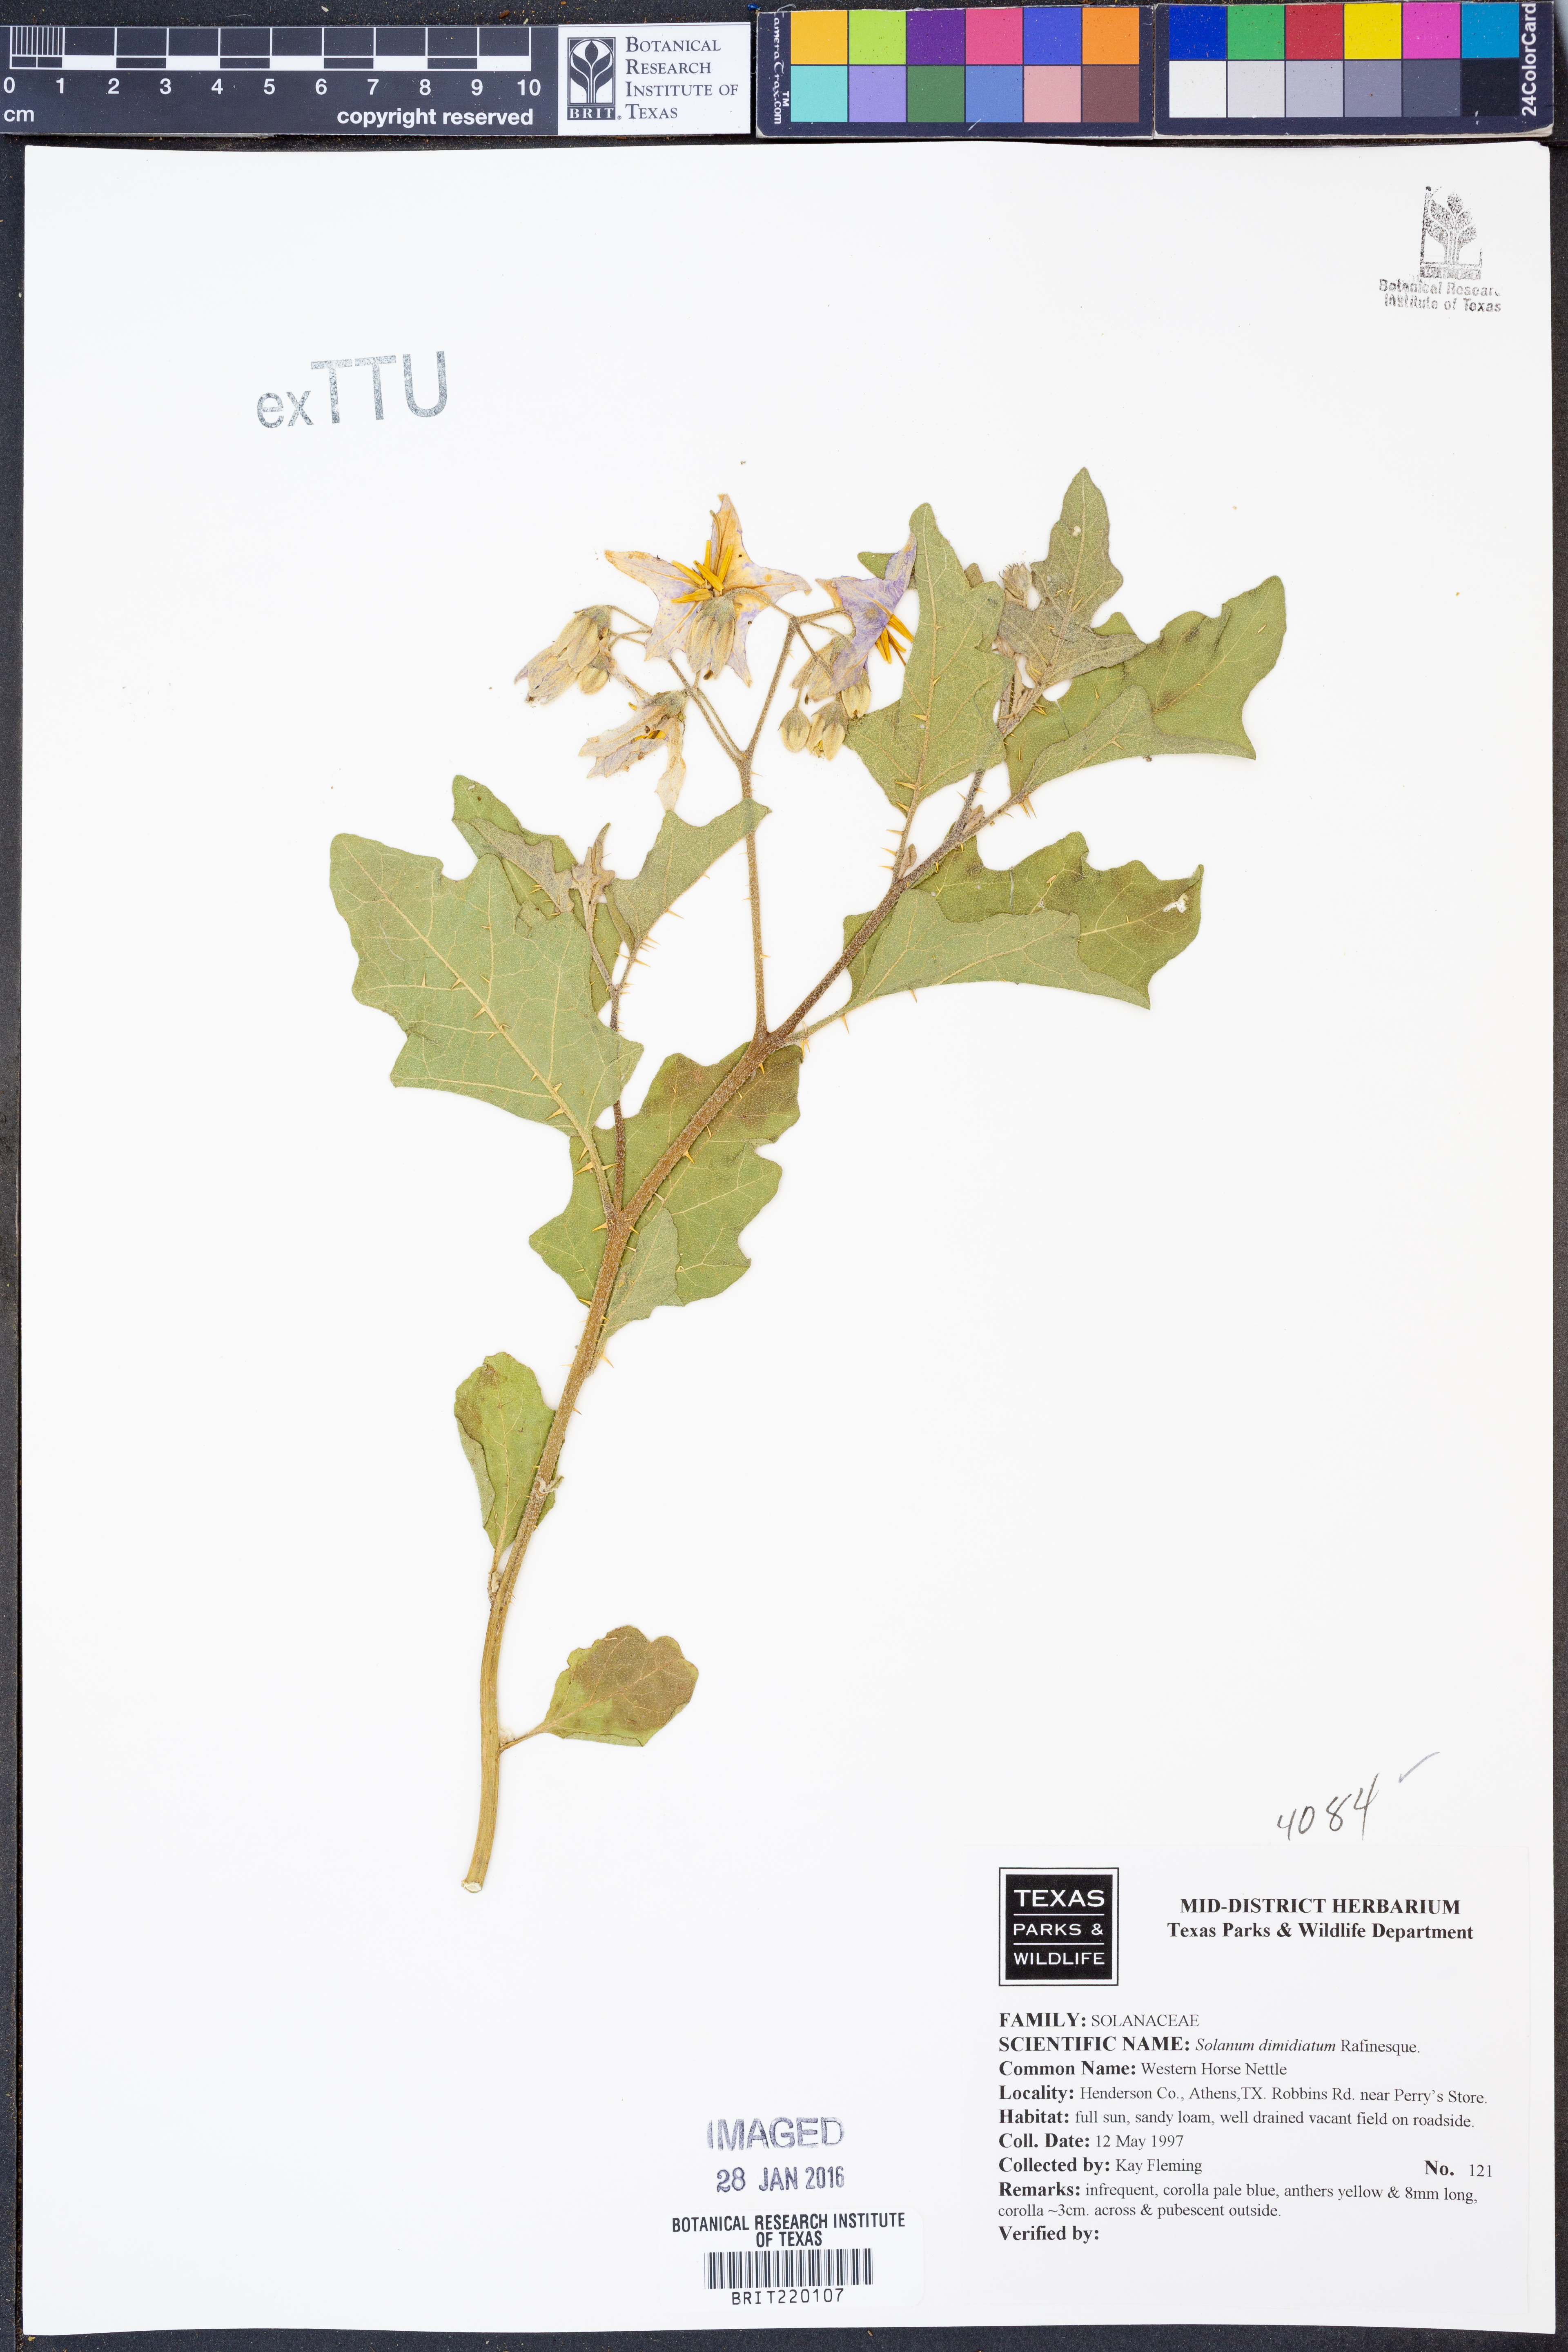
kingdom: Plantae
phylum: Tracheophyta
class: Magnoliopsida
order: Solanales
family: Solanaceae
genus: Solanum
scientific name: Solanum dimidiatum
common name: Carolina horse-nettle
